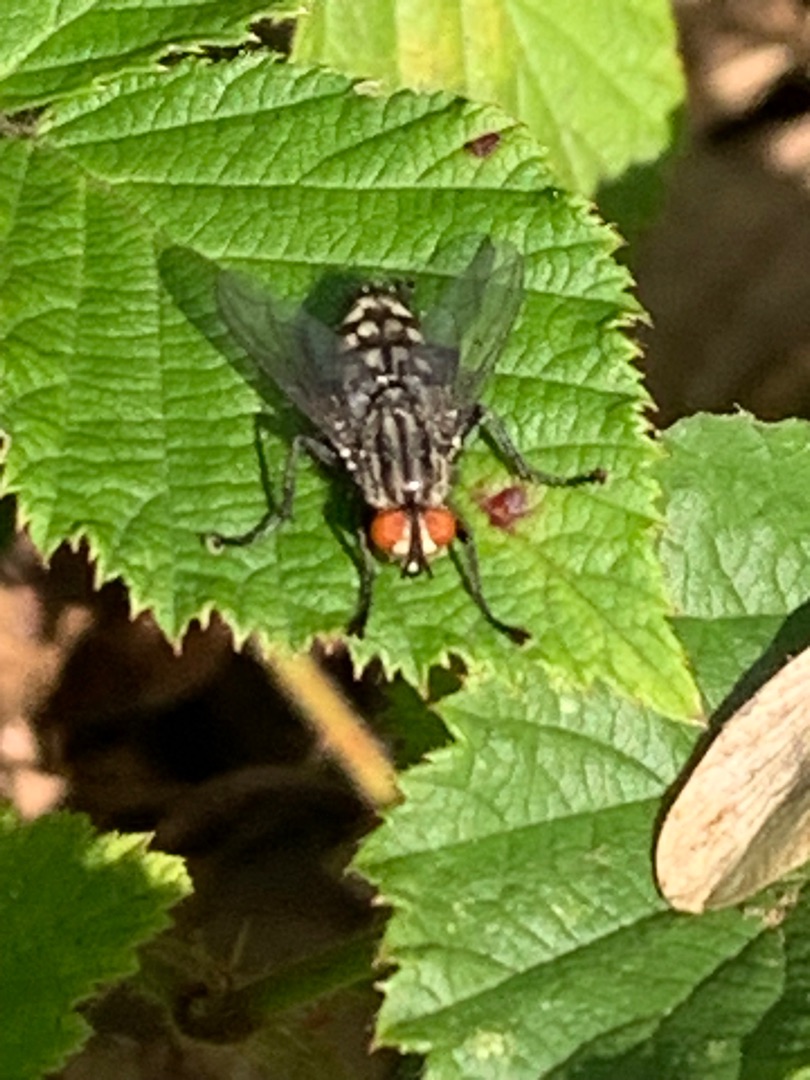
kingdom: Animalia
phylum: Arthropoda
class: Insecta
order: Diptera
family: Sarcophagidae
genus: Sarcophaga
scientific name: Sarcophaga
